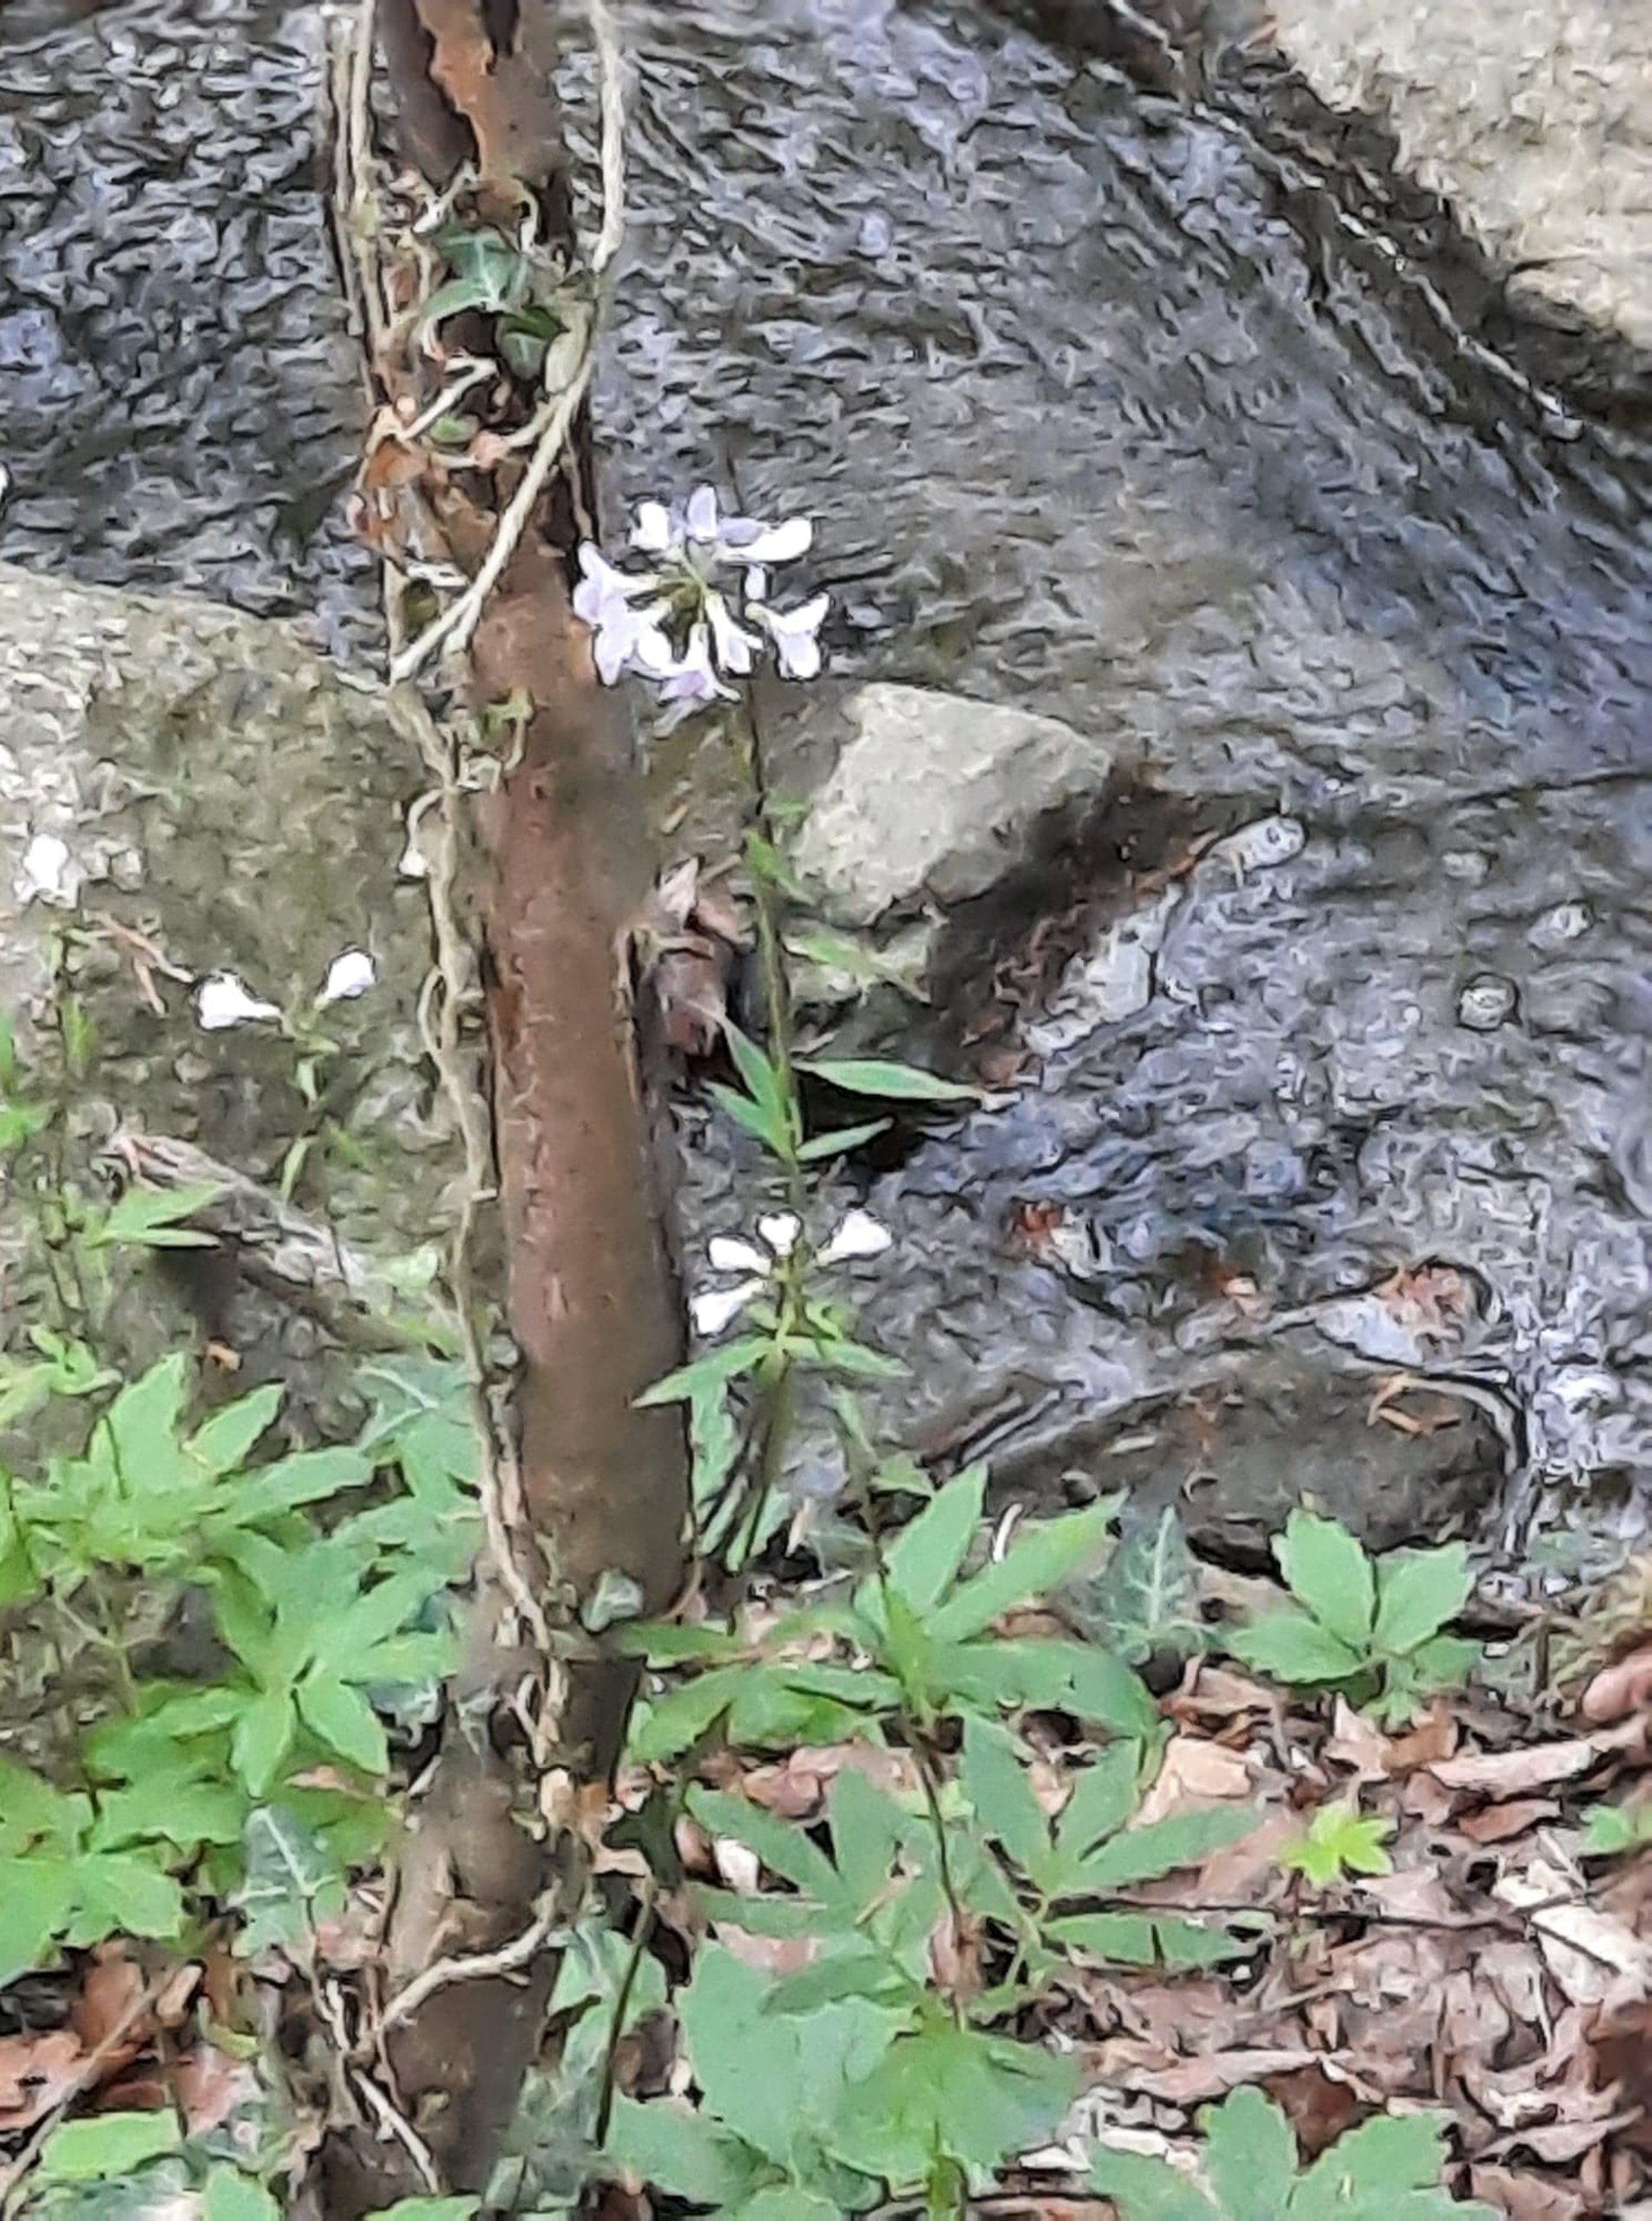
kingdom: Plantae
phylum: Tracheophyta
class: Magnoliopsida
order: Brassicales
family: Brassicaceae
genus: Cardamine
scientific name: Cardamine bulbifera
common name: Tandrod
